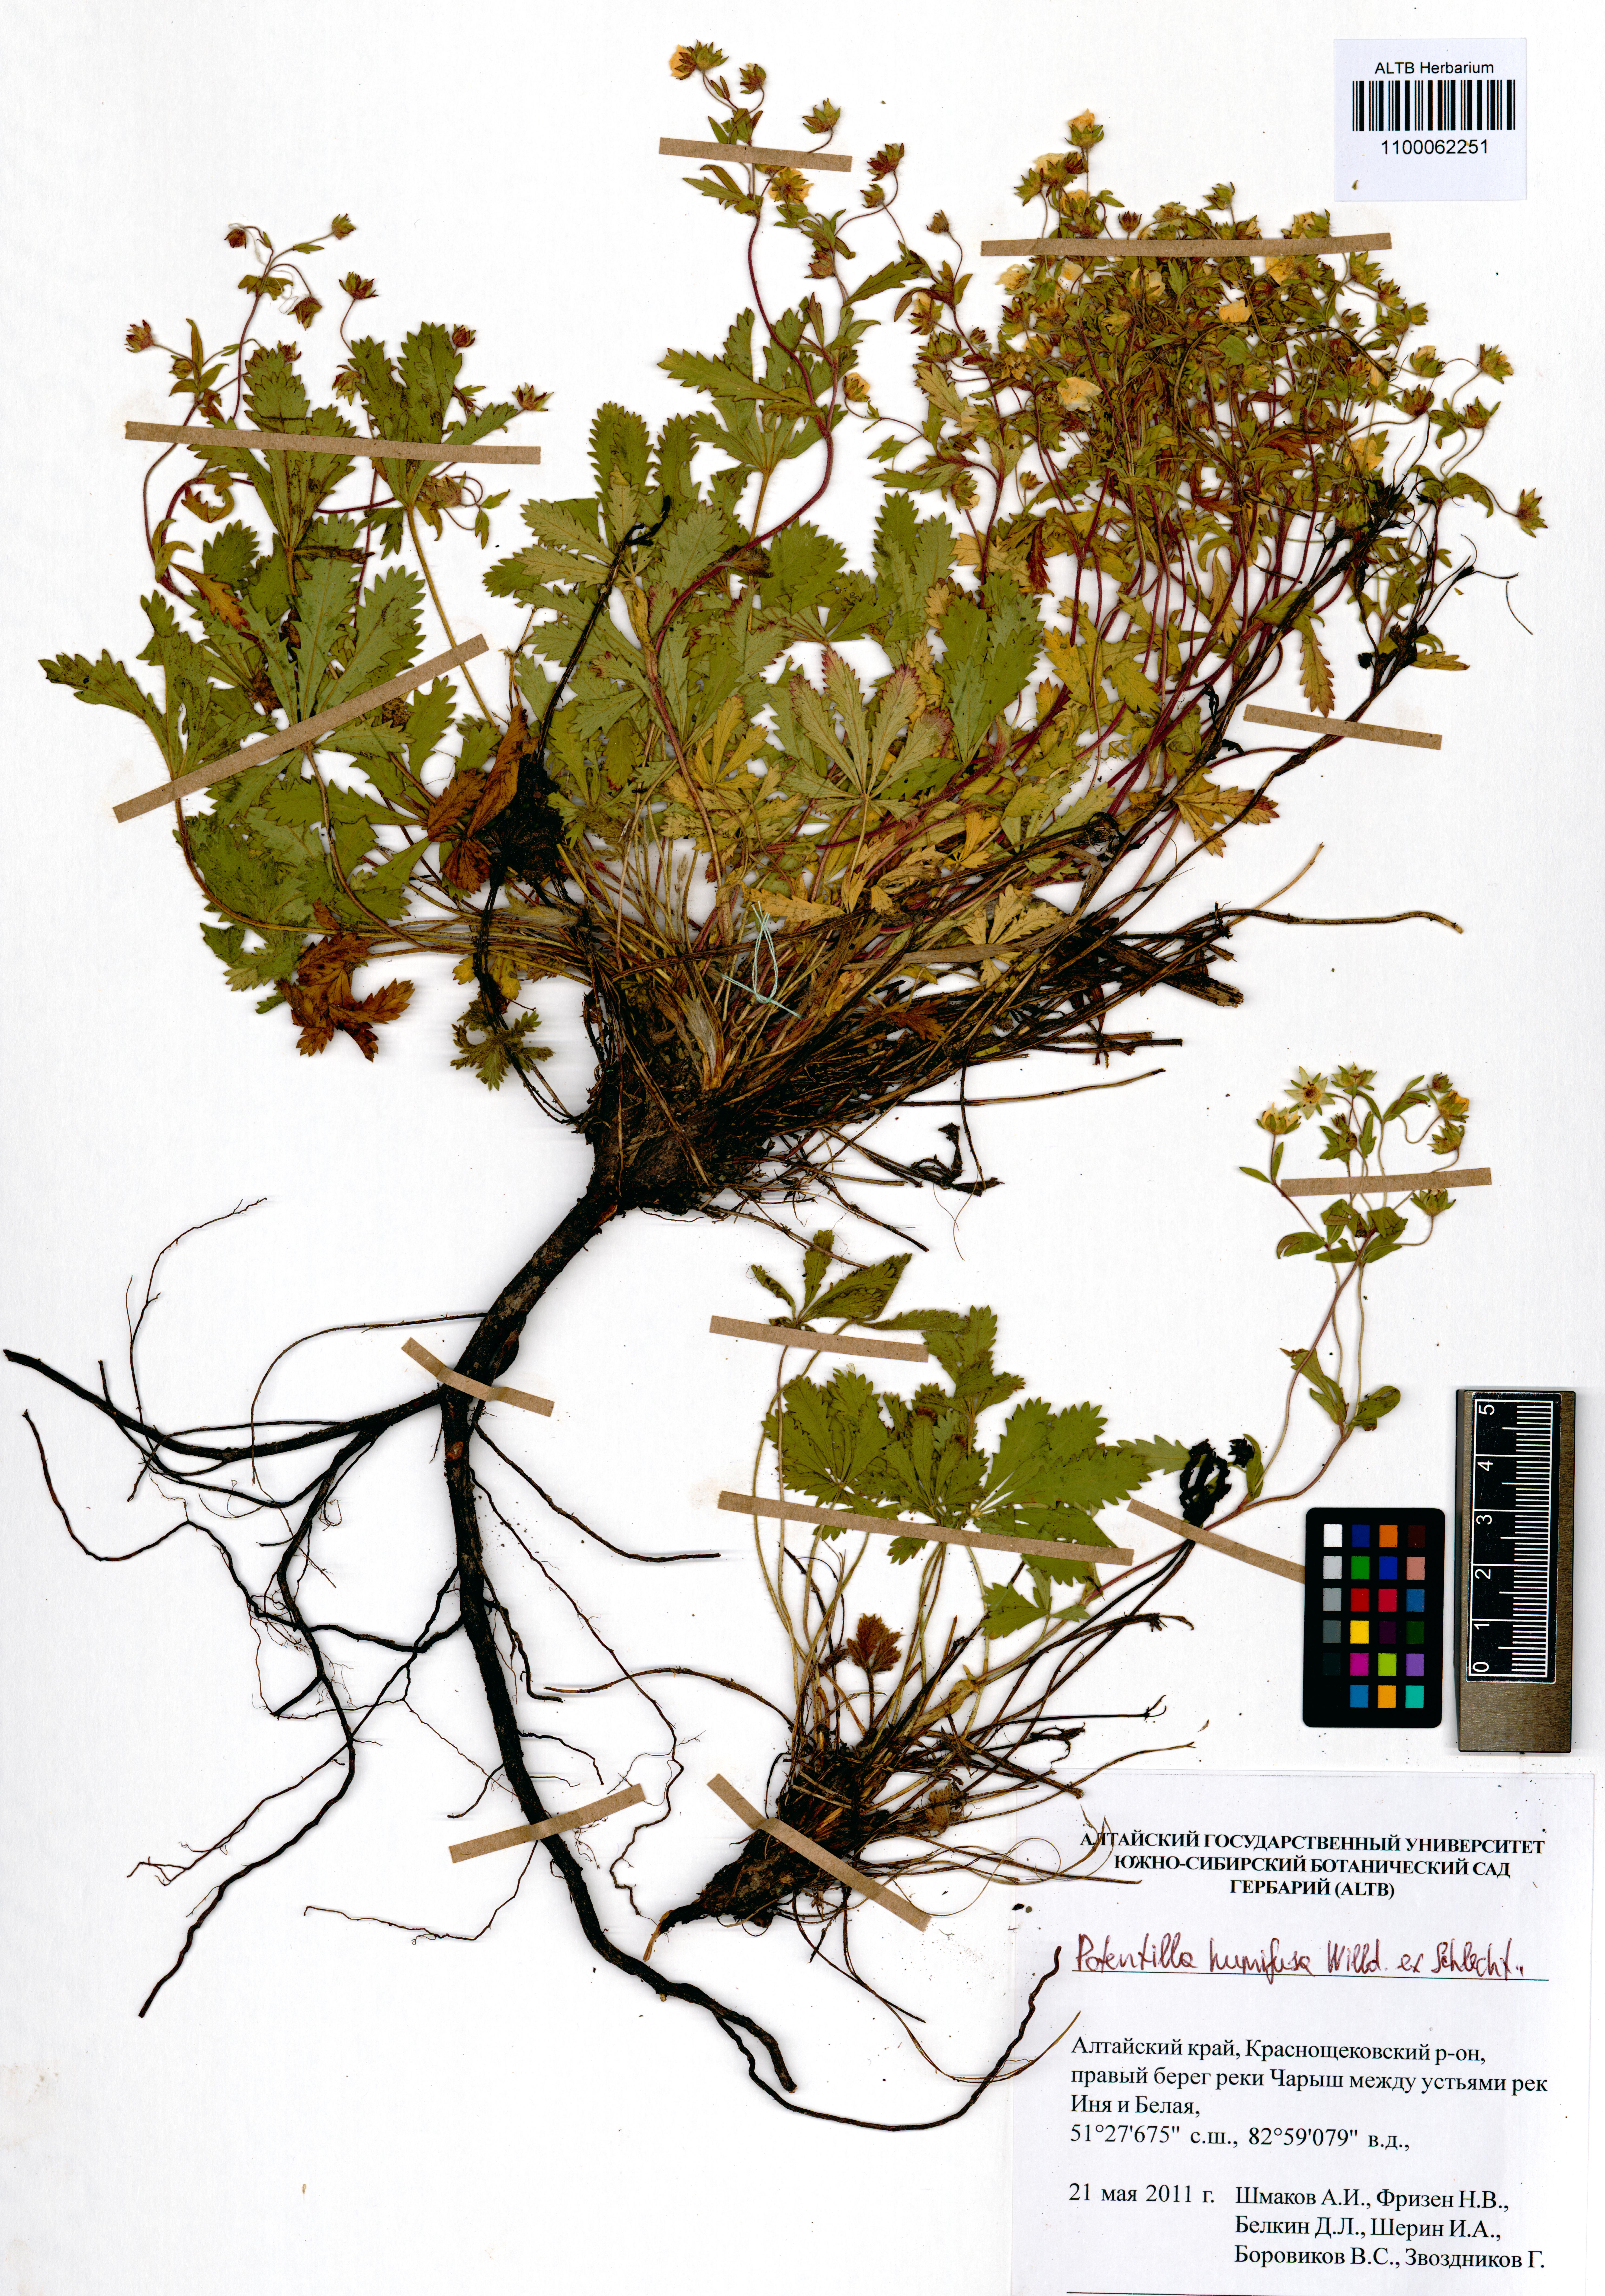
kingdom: Plantae
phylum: Tracheophyta
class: Magnoliopsida
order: Rosales
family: Rosaceae
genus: Potentilla
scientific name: Potentilla humifusa
